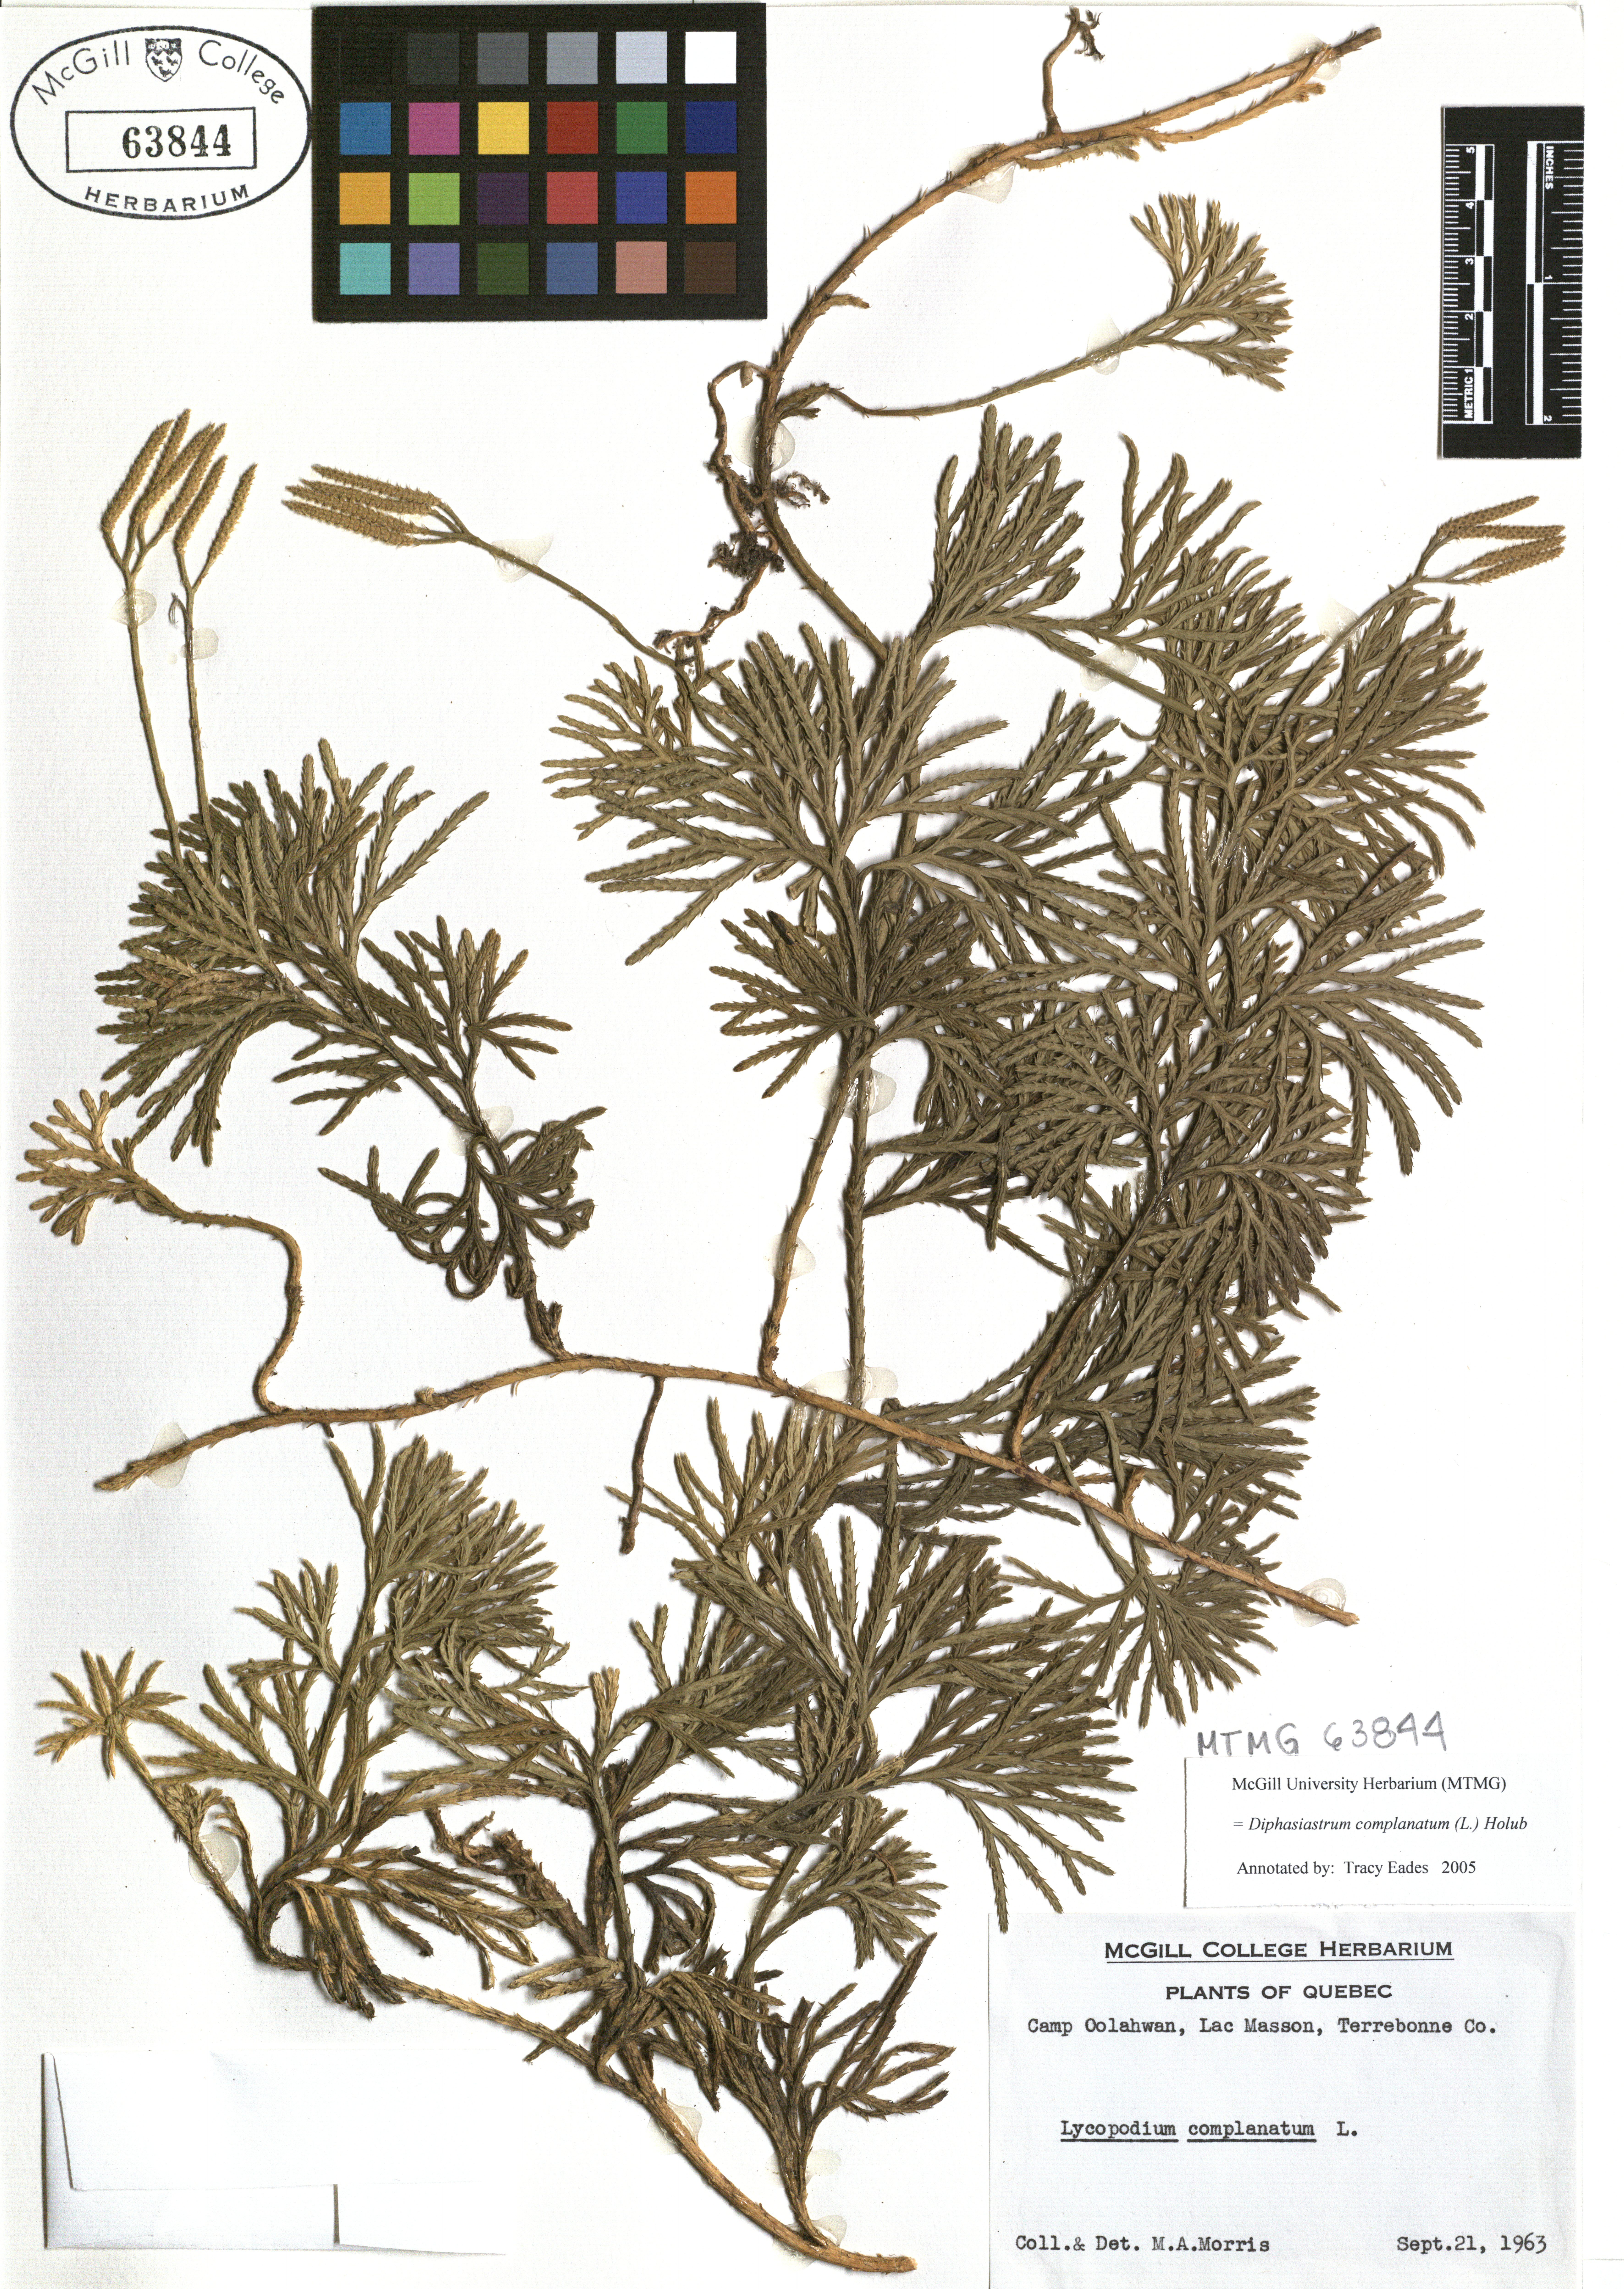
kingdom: Plantae
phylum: Tracheophyta
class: Lycopodiopsida
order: Lycopodiales
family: Lycopodiaceae
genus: Diphasiastrum
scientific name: Diphasiastrum complanatum
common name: Northern running-pine
